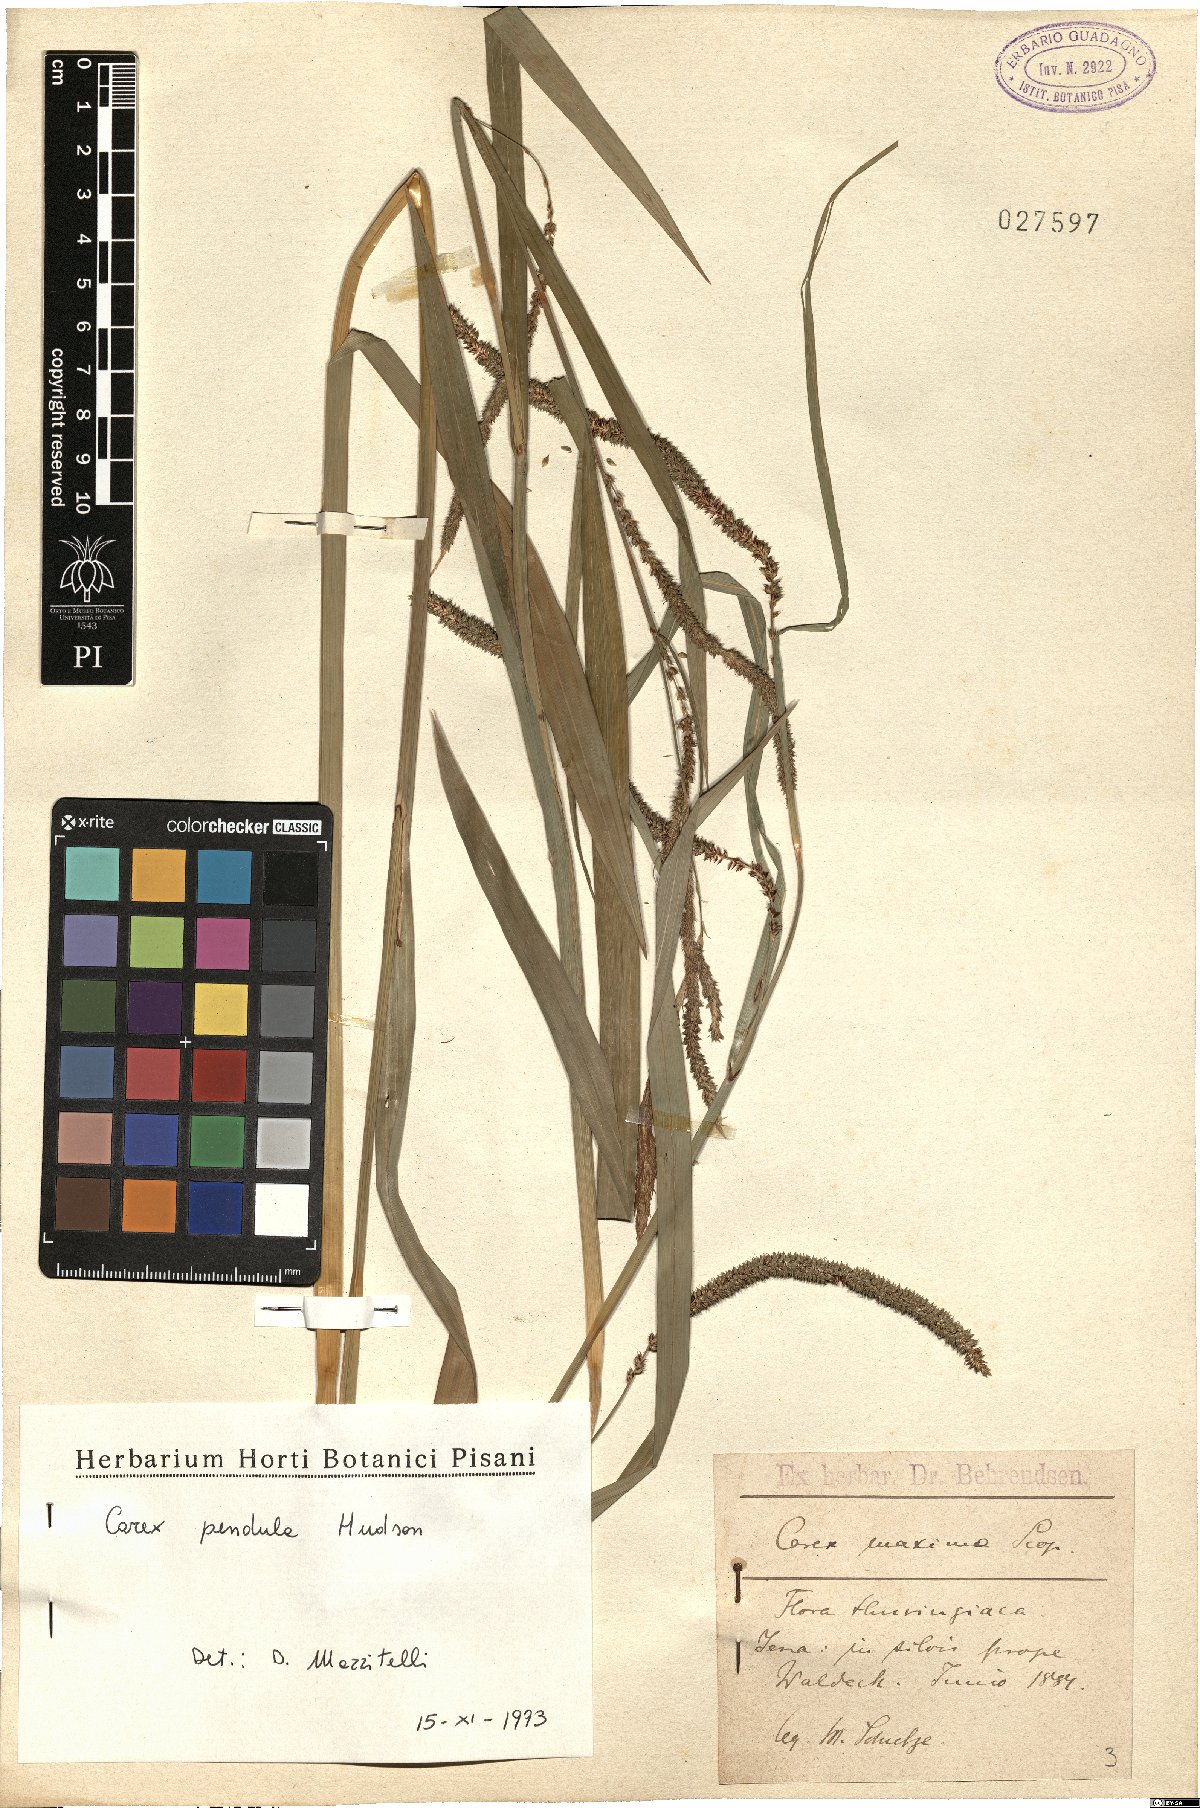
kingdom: Plantae
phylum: Tracheophyta
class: Liliopsida
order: Poales
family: Cyperaceae
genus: Carex
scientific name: Carex pendula
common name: Pendulous sedge
